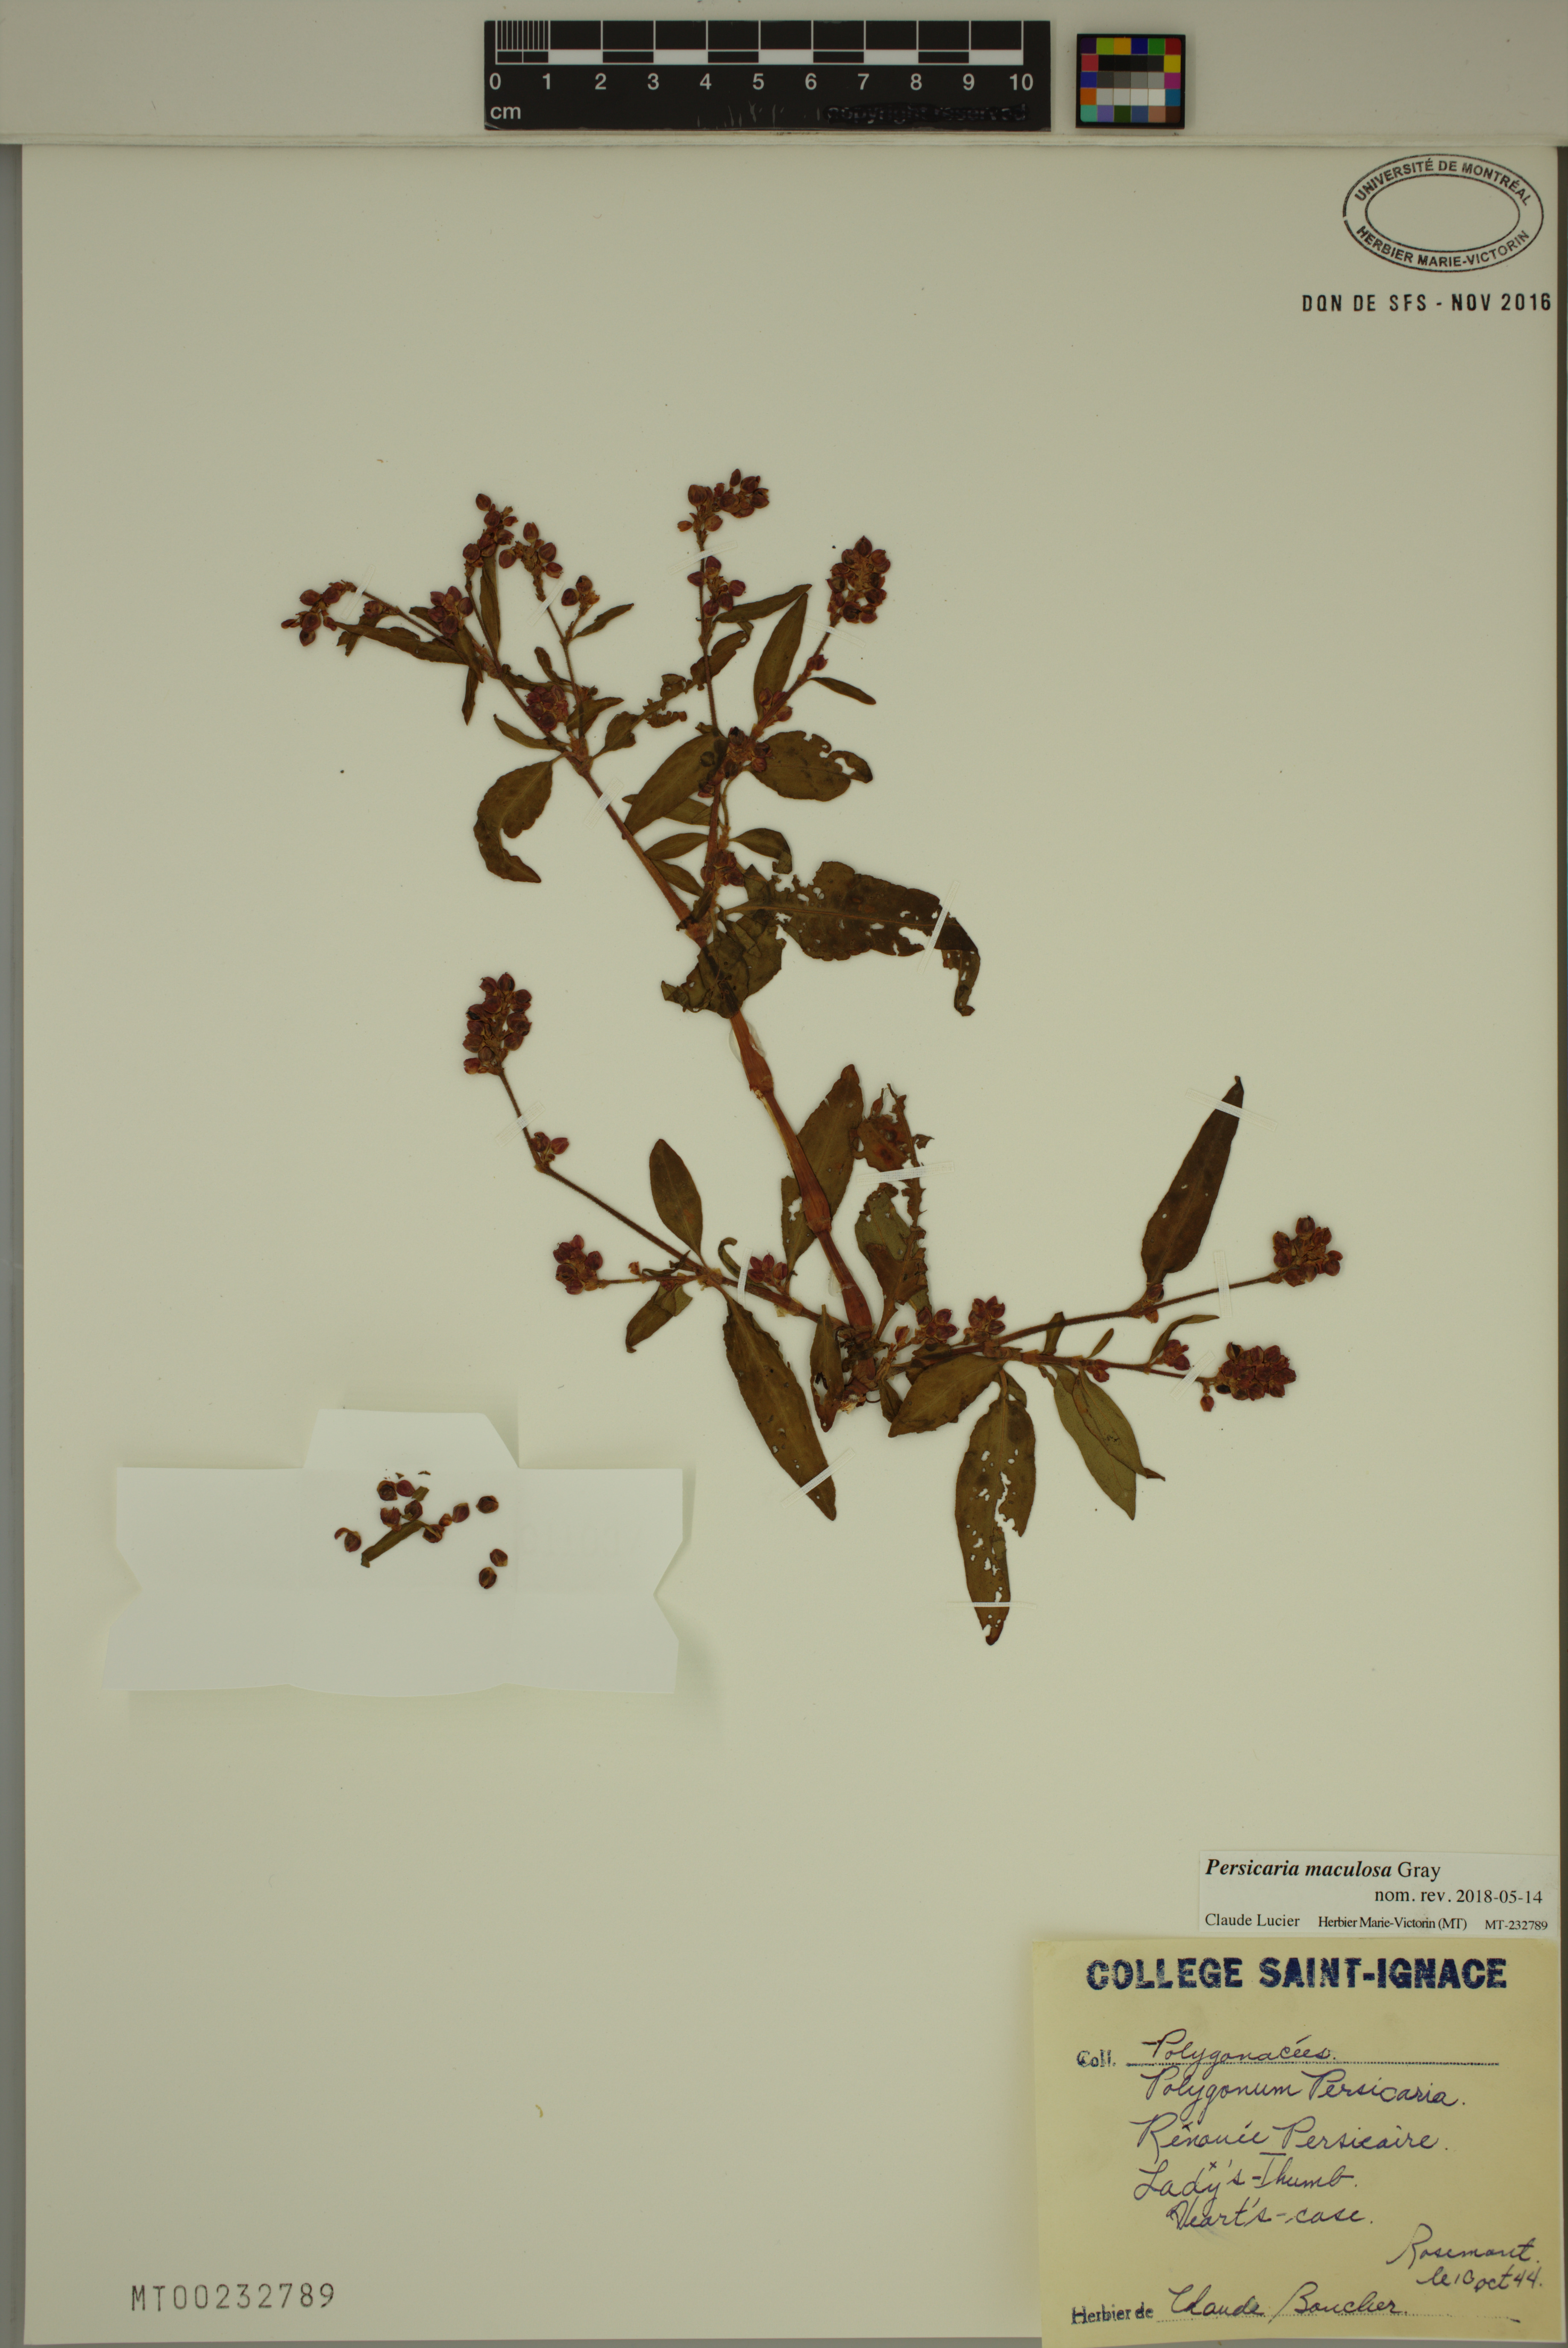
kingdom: Plantae
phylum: Tracheophyta
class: Magnoliopsida
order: Caryophyllales
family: Polygonaceae
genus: Persicaria
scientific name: Persicaria maculosa
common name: Redshank
